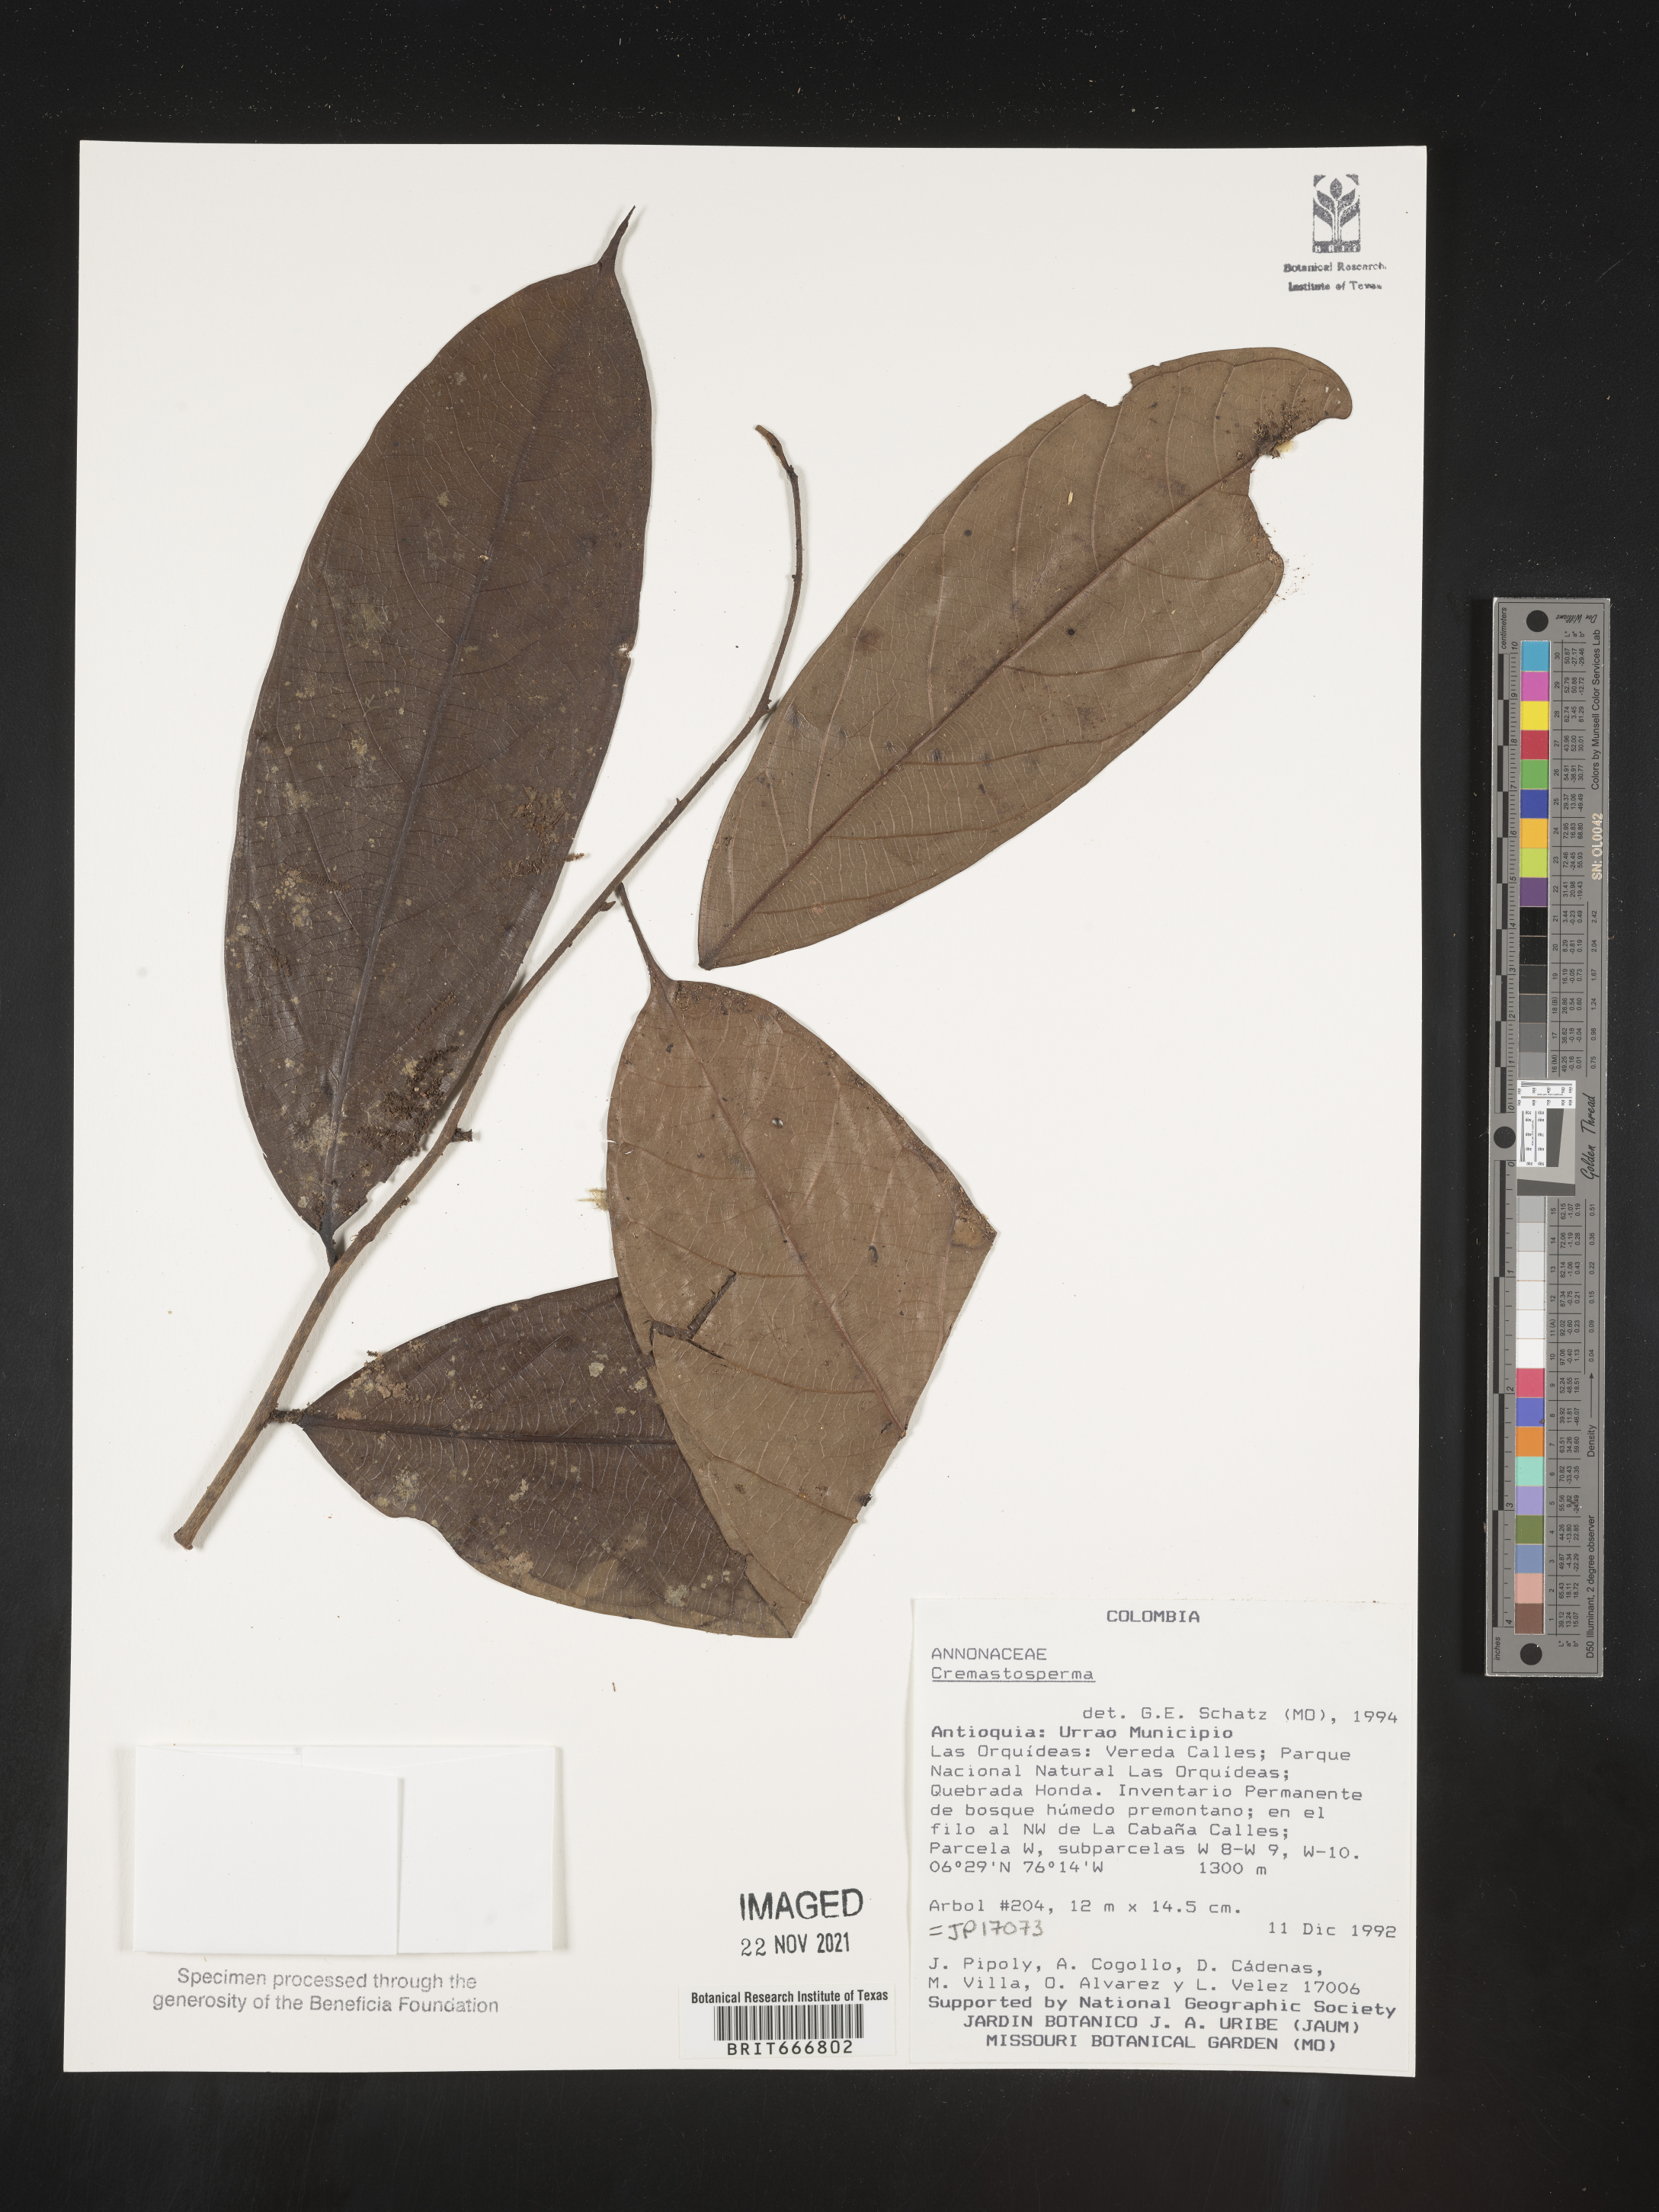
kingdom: Plantae
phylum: Tracheophyta
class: Magnoliopsida
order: Magnoliales
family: Annonaceae
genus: Cremastosperma
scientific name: Cremastosperma
